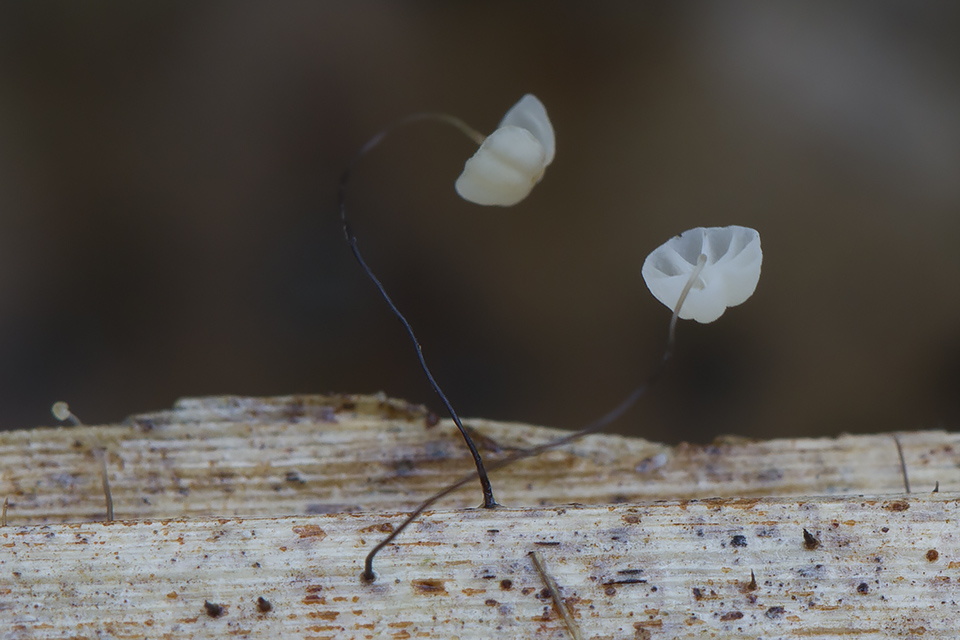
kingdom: Fungi
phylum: Basidiomycota
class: Agaricomycetes
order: Agaricales
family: Marasmiaceae
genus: Marasmius
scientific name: Marasmius limosus
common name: kær-bruskhat
